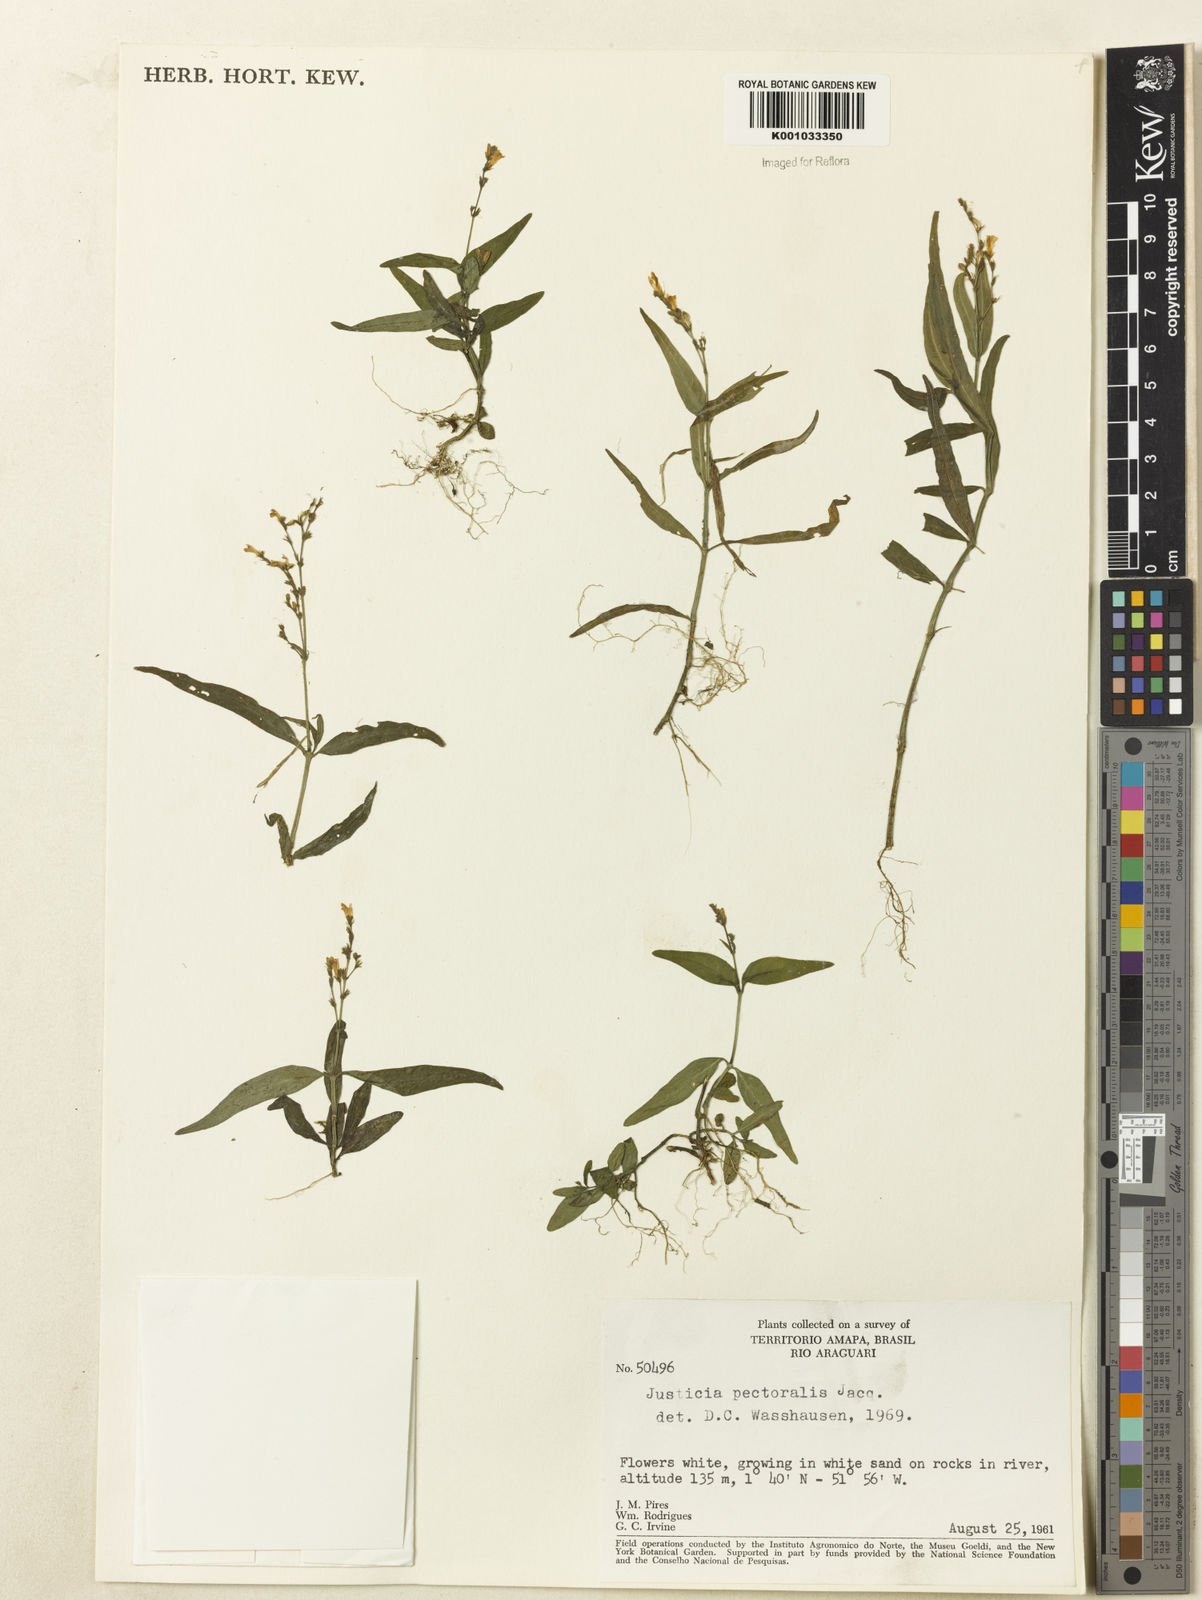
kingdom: Plantae
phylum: Tracheophyta
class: Magnoliopsida
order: Lamiales
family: Acanthaceae
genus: Dianthera
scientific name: Dianthera pectoralis
